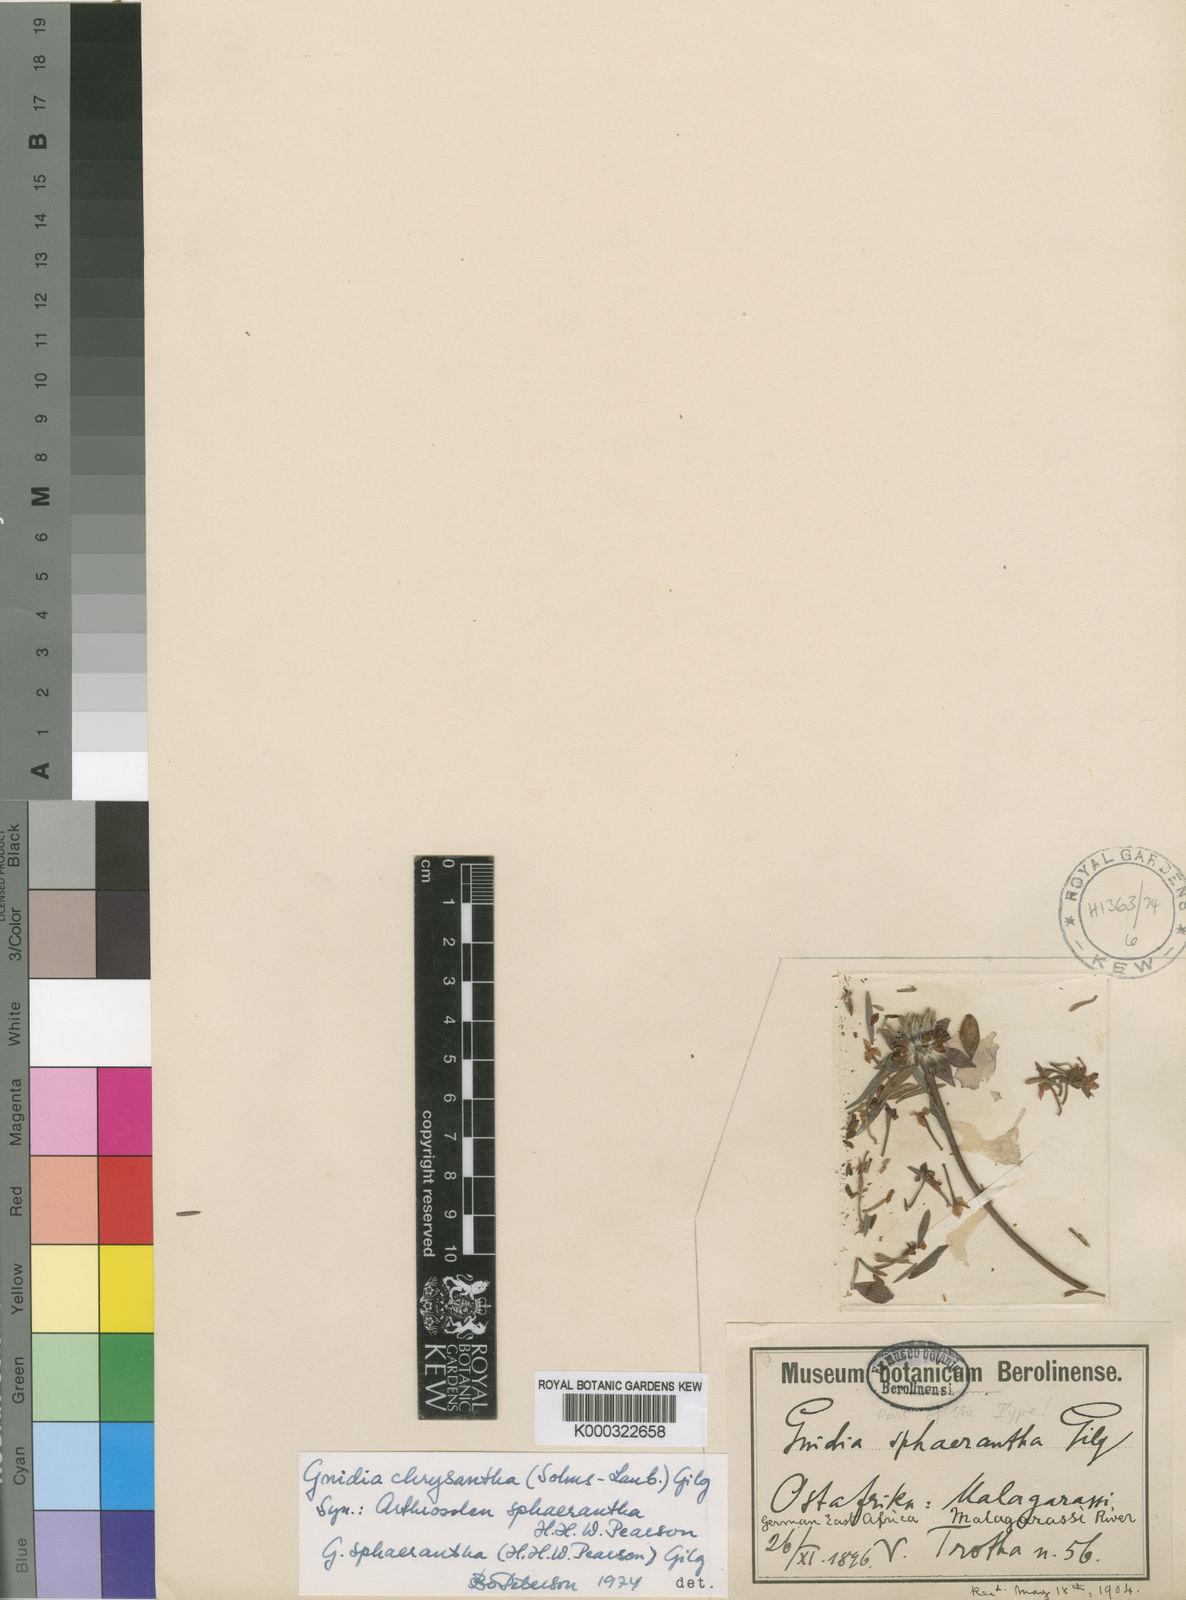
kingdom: Plantae
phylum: Tracheophyta
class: Magnoliopsida
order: Malvales
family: Thymelaeaceae
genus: Gnidia
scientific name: Gnidia chrysantha
